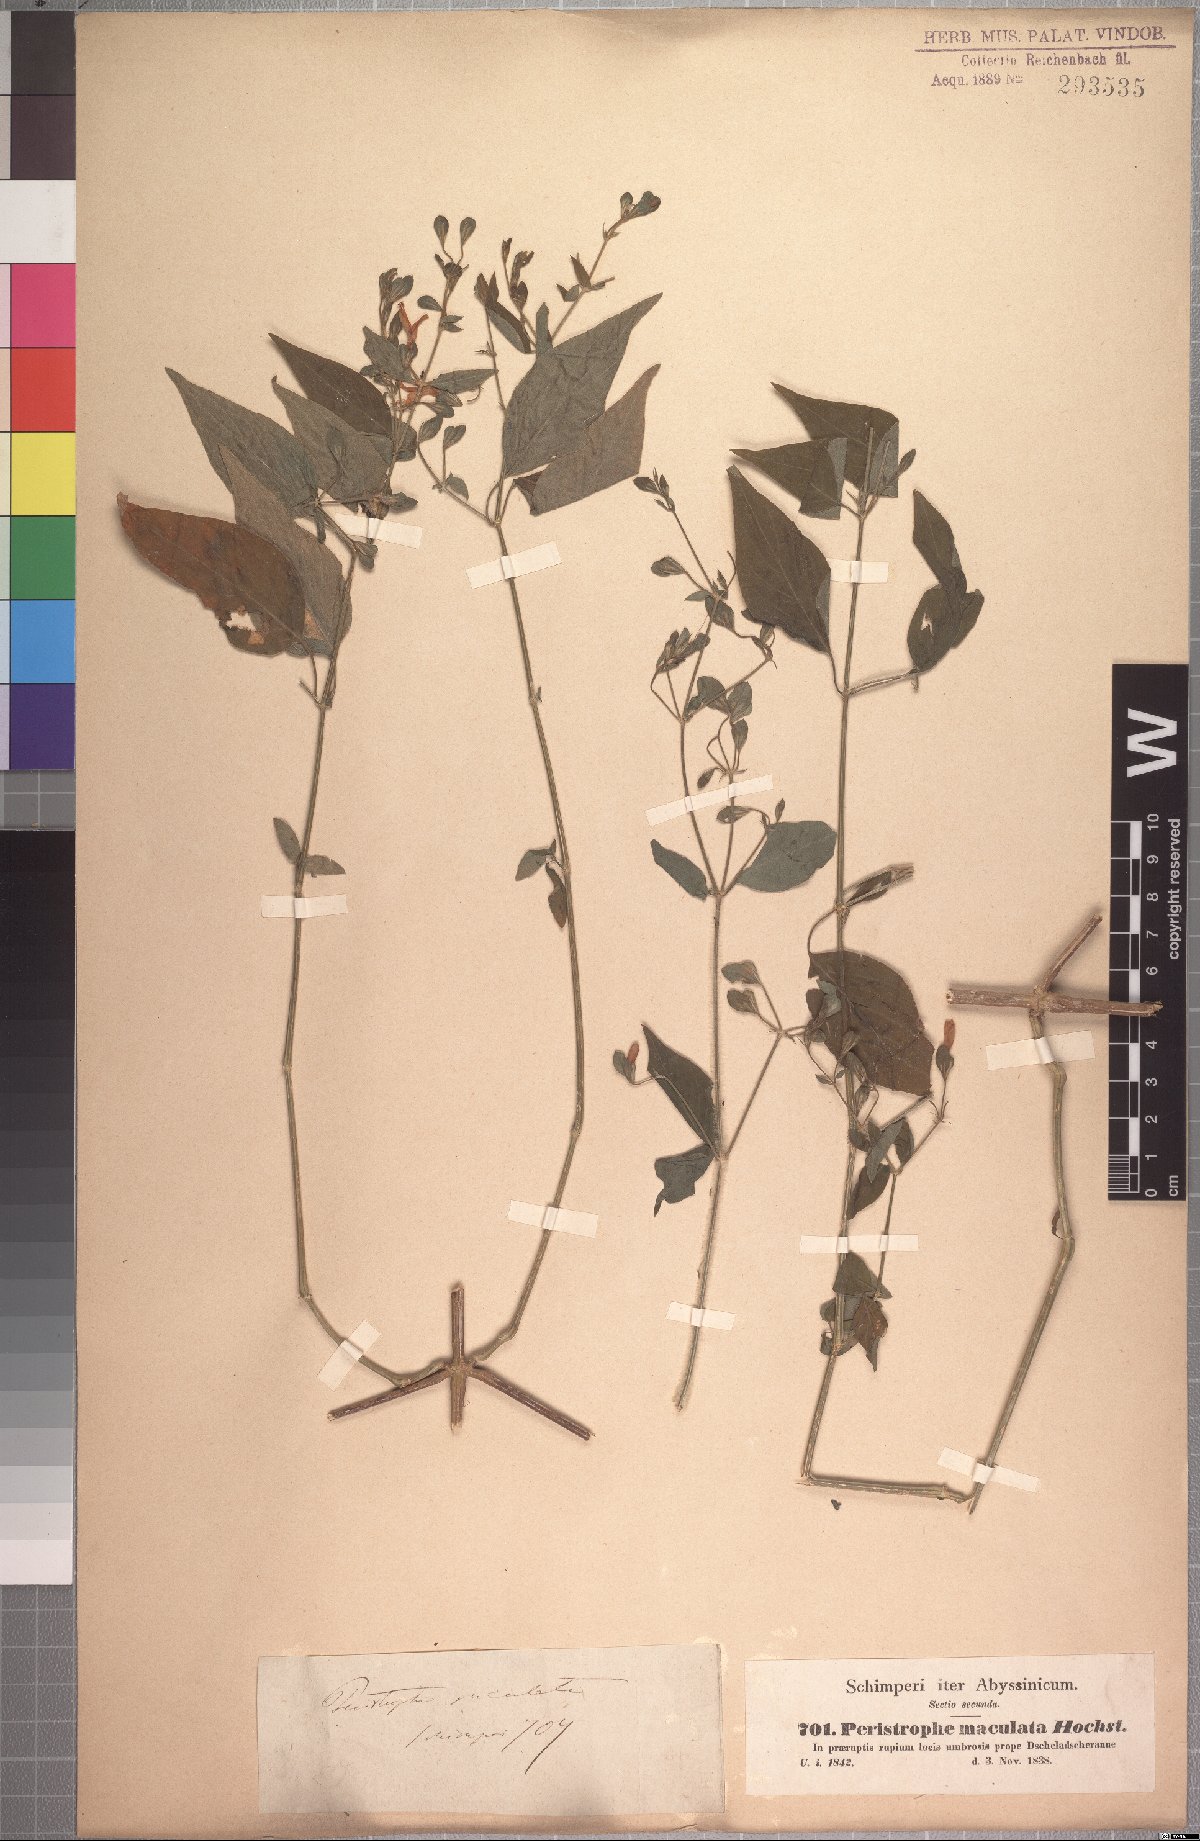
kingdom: Plantae
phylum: Tracheophyta
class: Magnoliopsida
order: Lamiales
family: Acanthaceae
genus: Dicliptera
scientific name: Dicliptera verticillata
